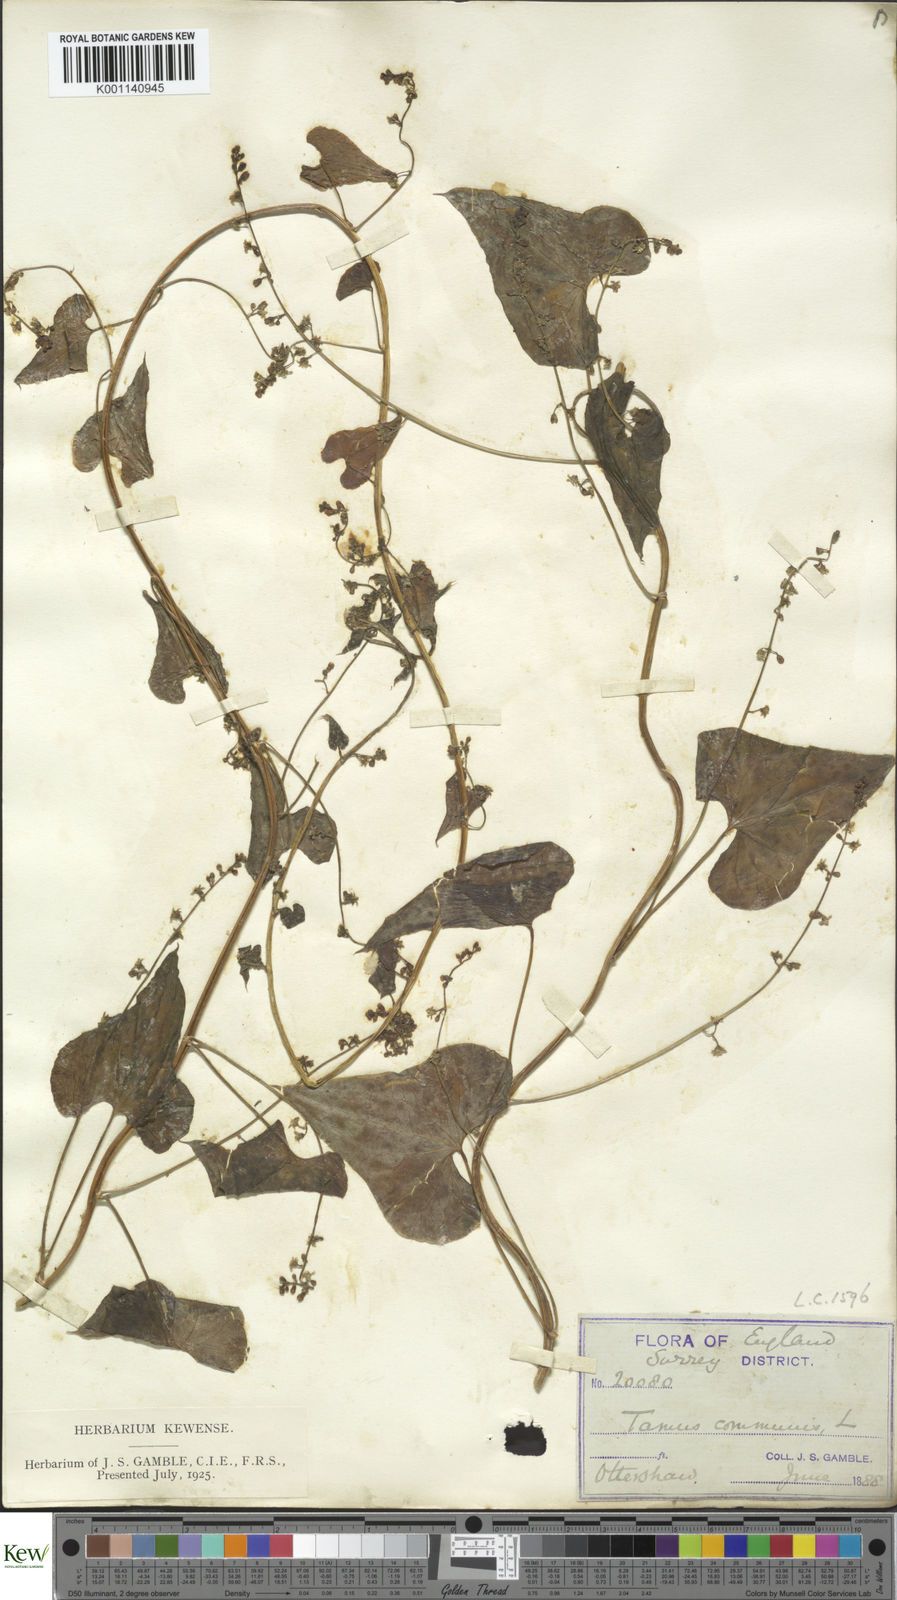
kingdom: Plantae
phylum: Tracheophyta
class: Liliopsida
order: Dioscoreales
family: Dioscoreaceae
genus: Dioscorea
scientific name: Dioscorea communis
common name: Black-bindweed
